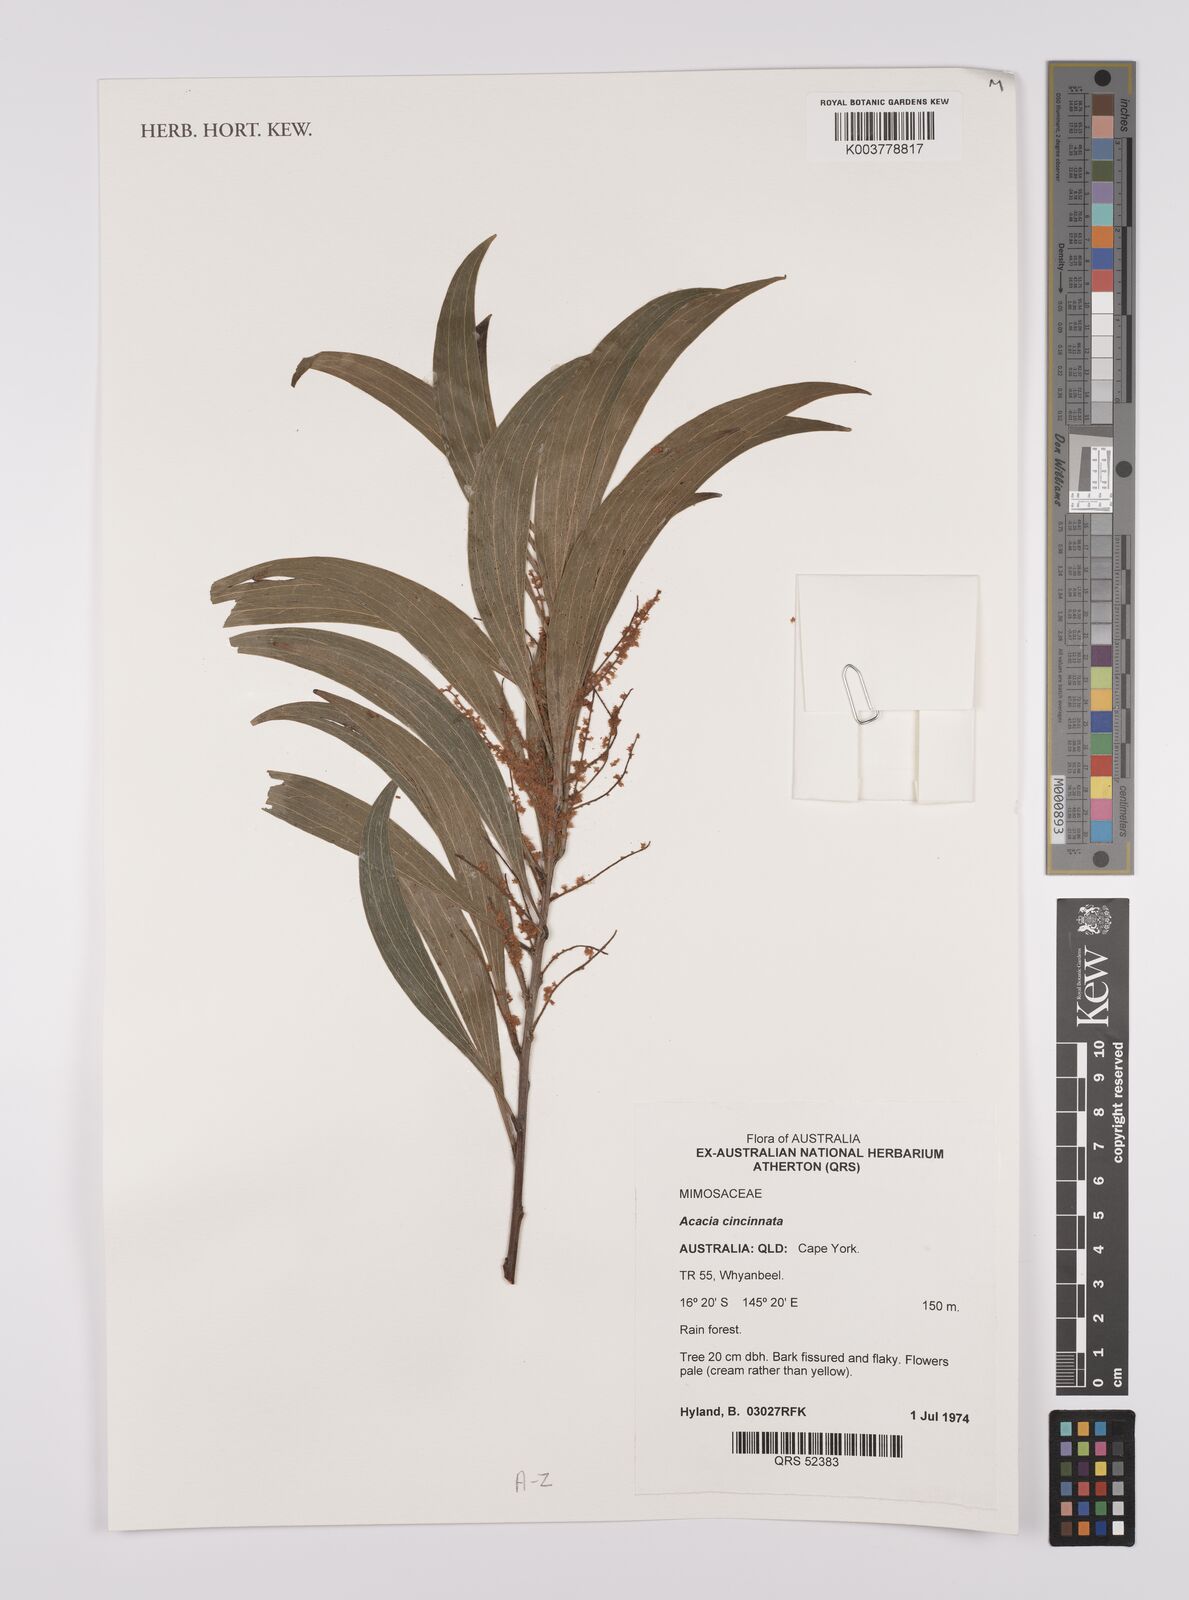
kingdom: Plantae
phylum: Tracheophyta
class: Magnoliopsida
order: Fabales
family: Fabaceae
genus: Acacia
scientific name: Acacia cincinnata
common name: Daintree wattle
